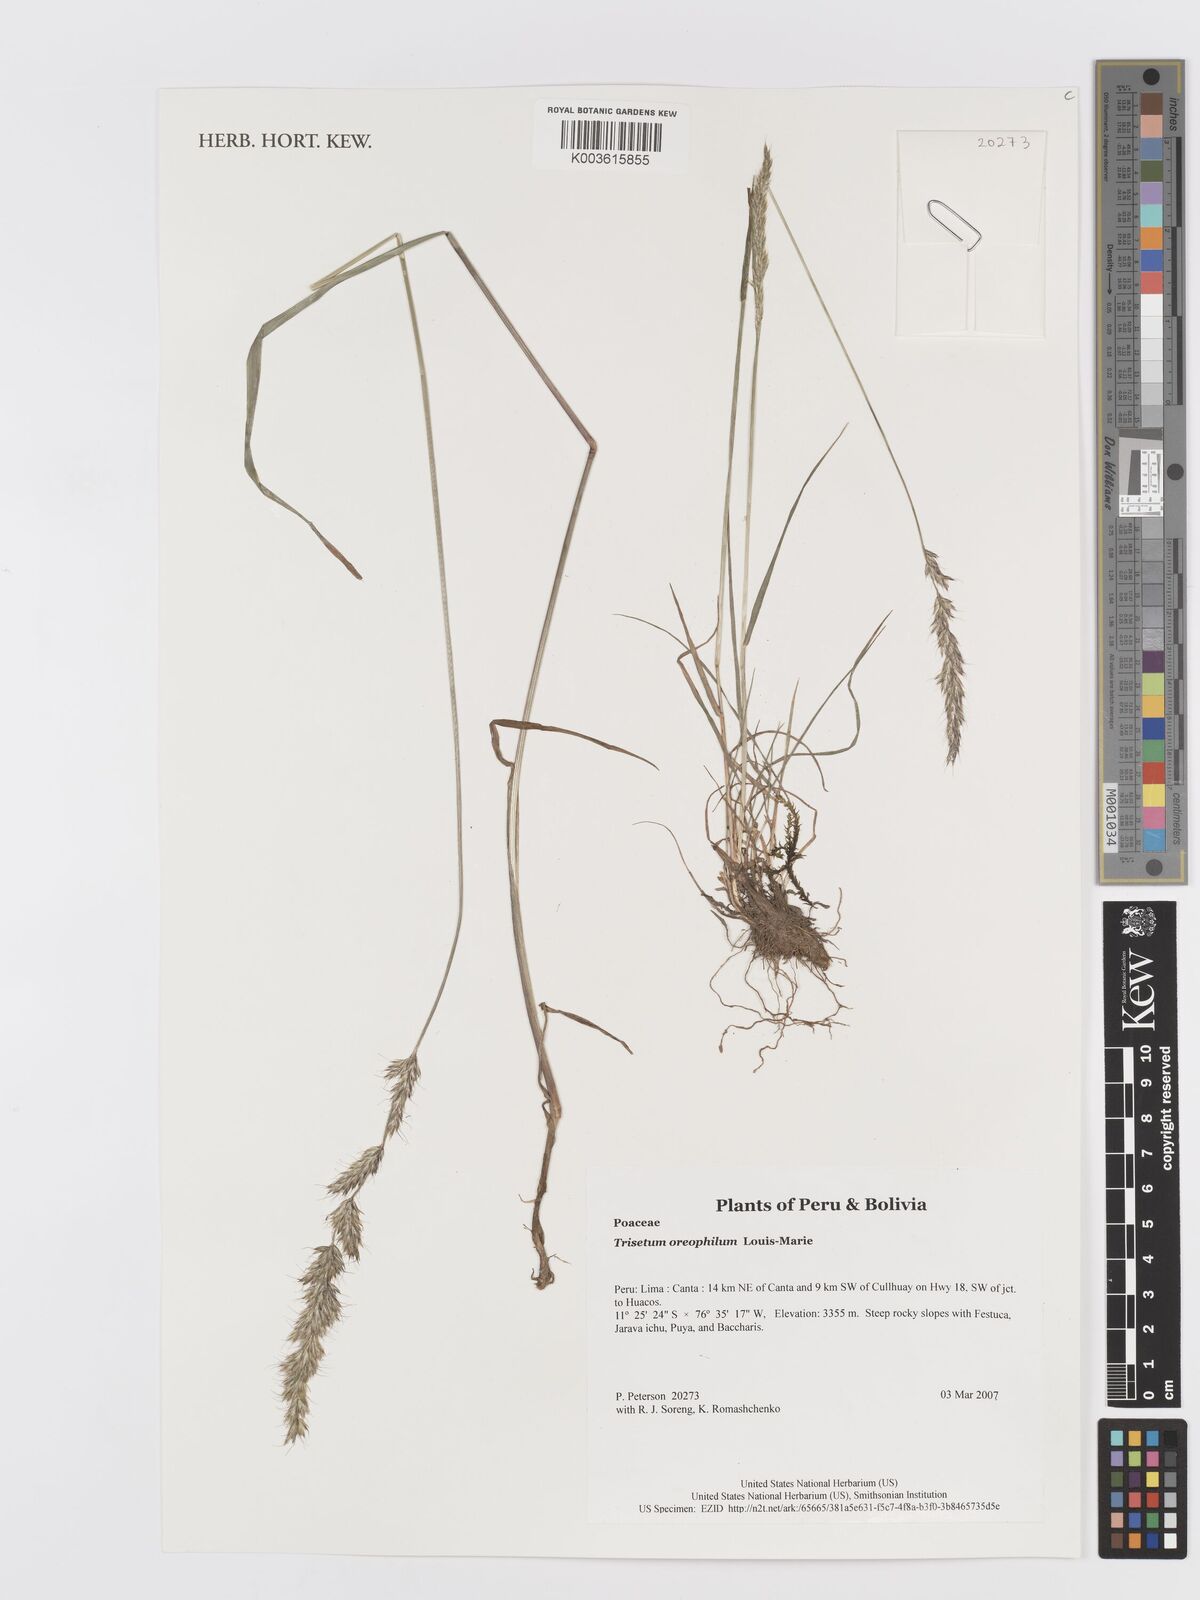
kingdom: Plantae
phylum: Tracheophyta
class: Liliopsida
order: Poales
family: Poaceae
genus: Koeleria
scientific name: Koeleria oreophila
